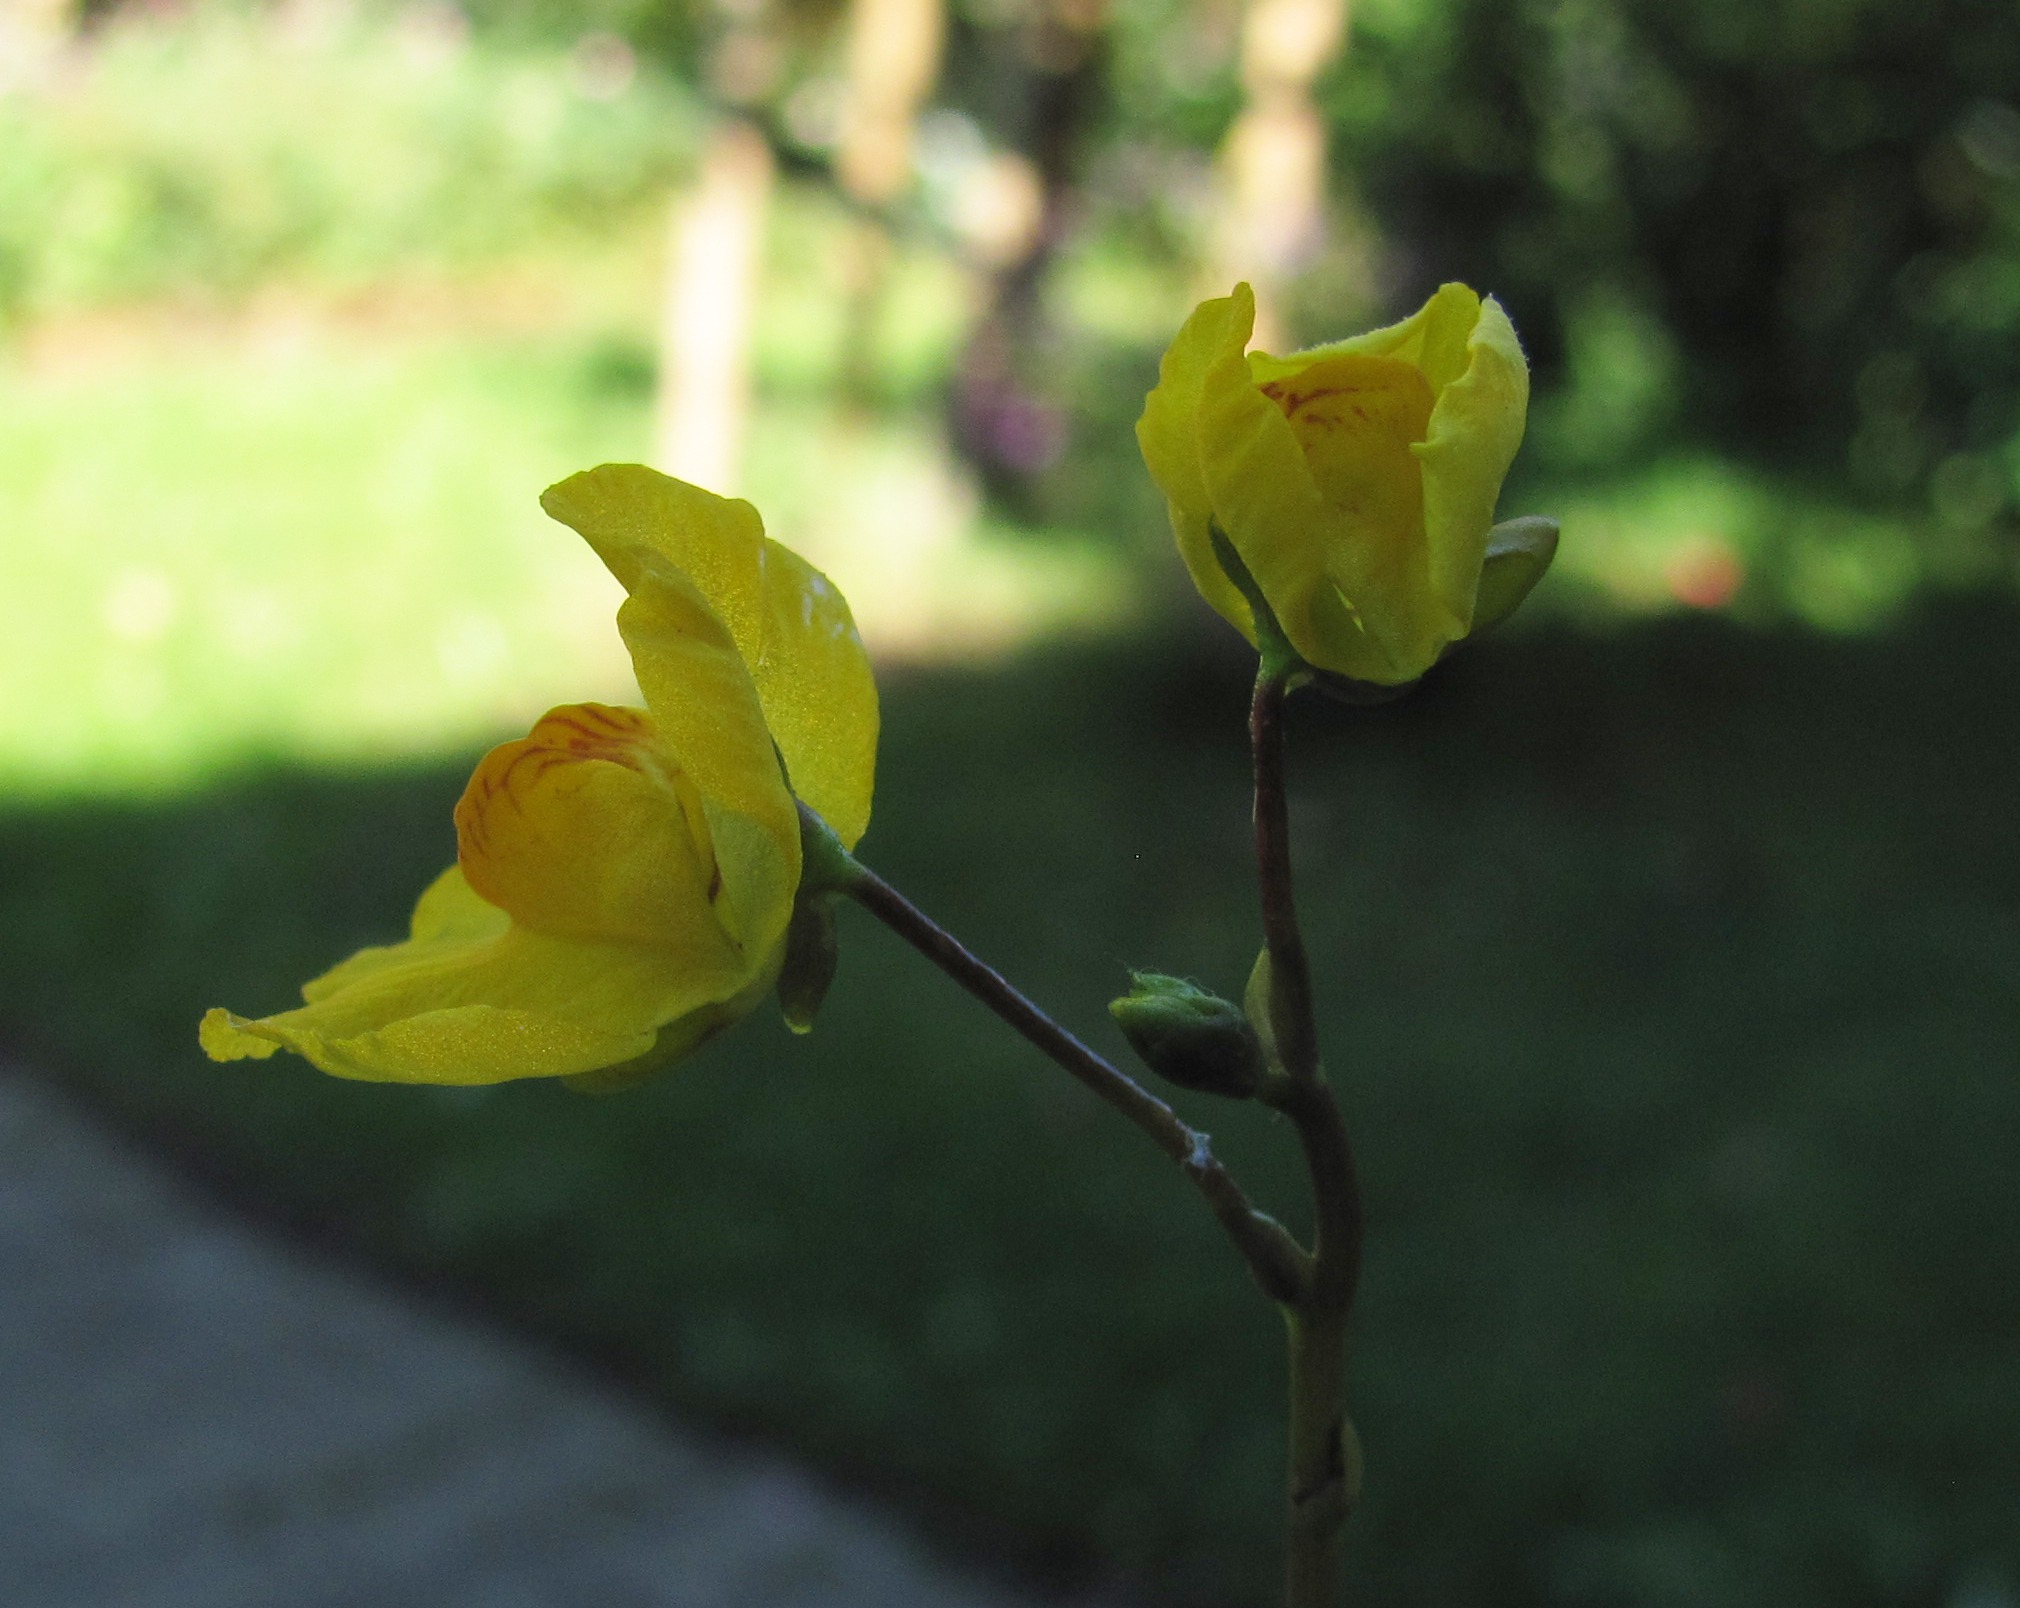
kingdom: Plantae
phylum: Tracheophyta
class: Magnoliopsida
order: Lamiales
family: Lentibulariaceae
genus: Utricularia
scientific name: Utricularia australis
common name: Slank blærerod
